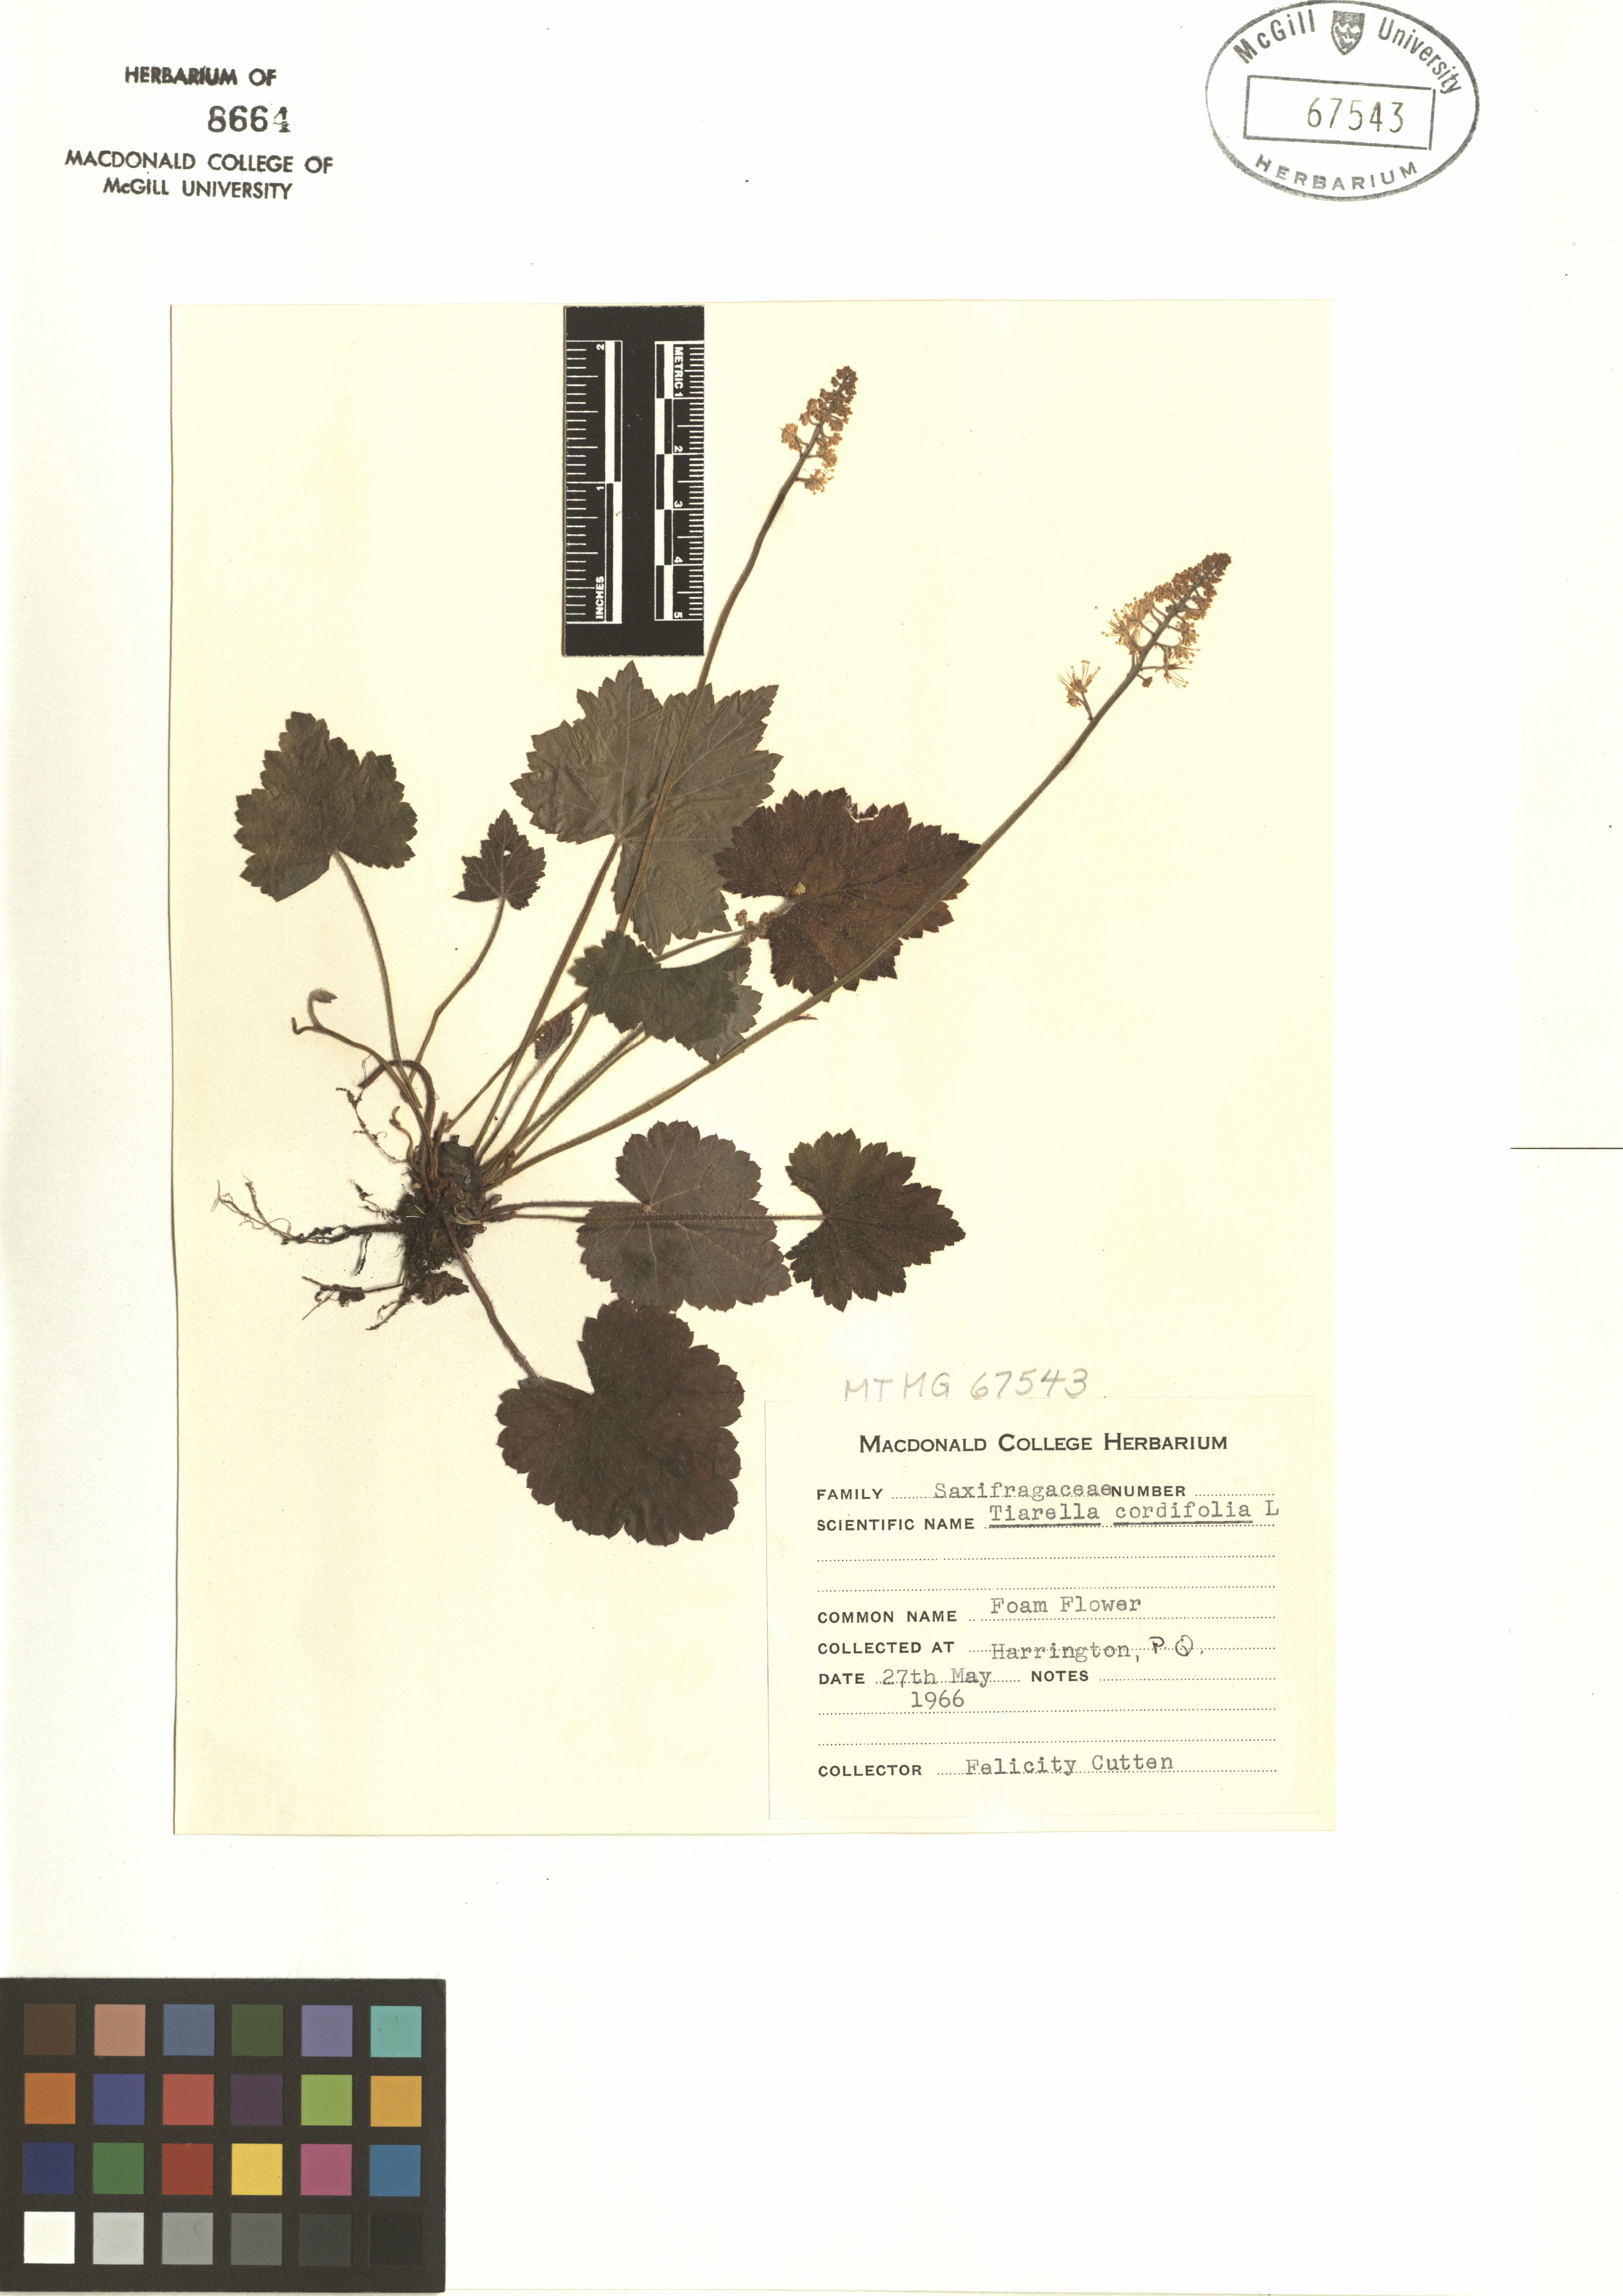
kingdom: Plantae
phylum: Tracheophyta
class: Magnoliopsida
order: Saxifragales
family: Saxifragaceae
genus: Tiarella
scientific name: Tiarella cordifolia
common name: Foamflower
